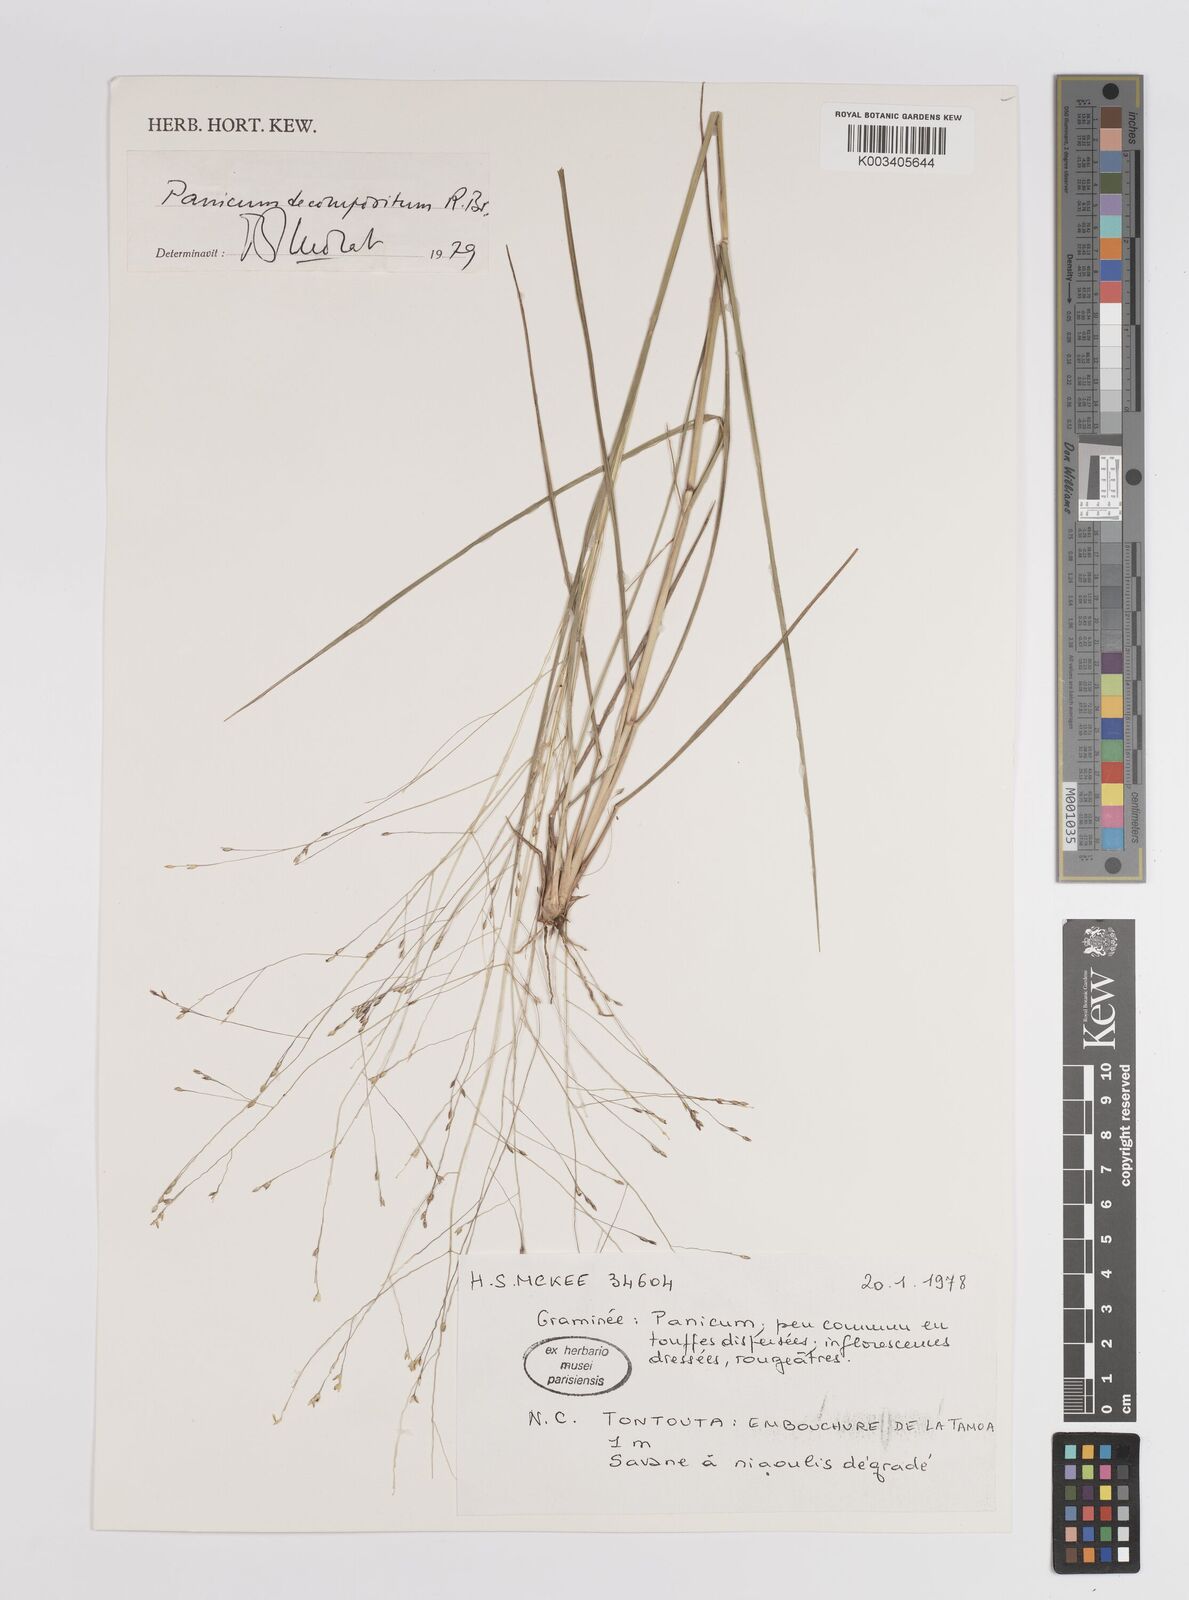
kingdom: Plantae
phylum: Tracheophyta
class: Liliopsida
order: Poales
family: Poaceae
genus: Panicum
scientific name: Panicum decompositum
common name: Australian millet
